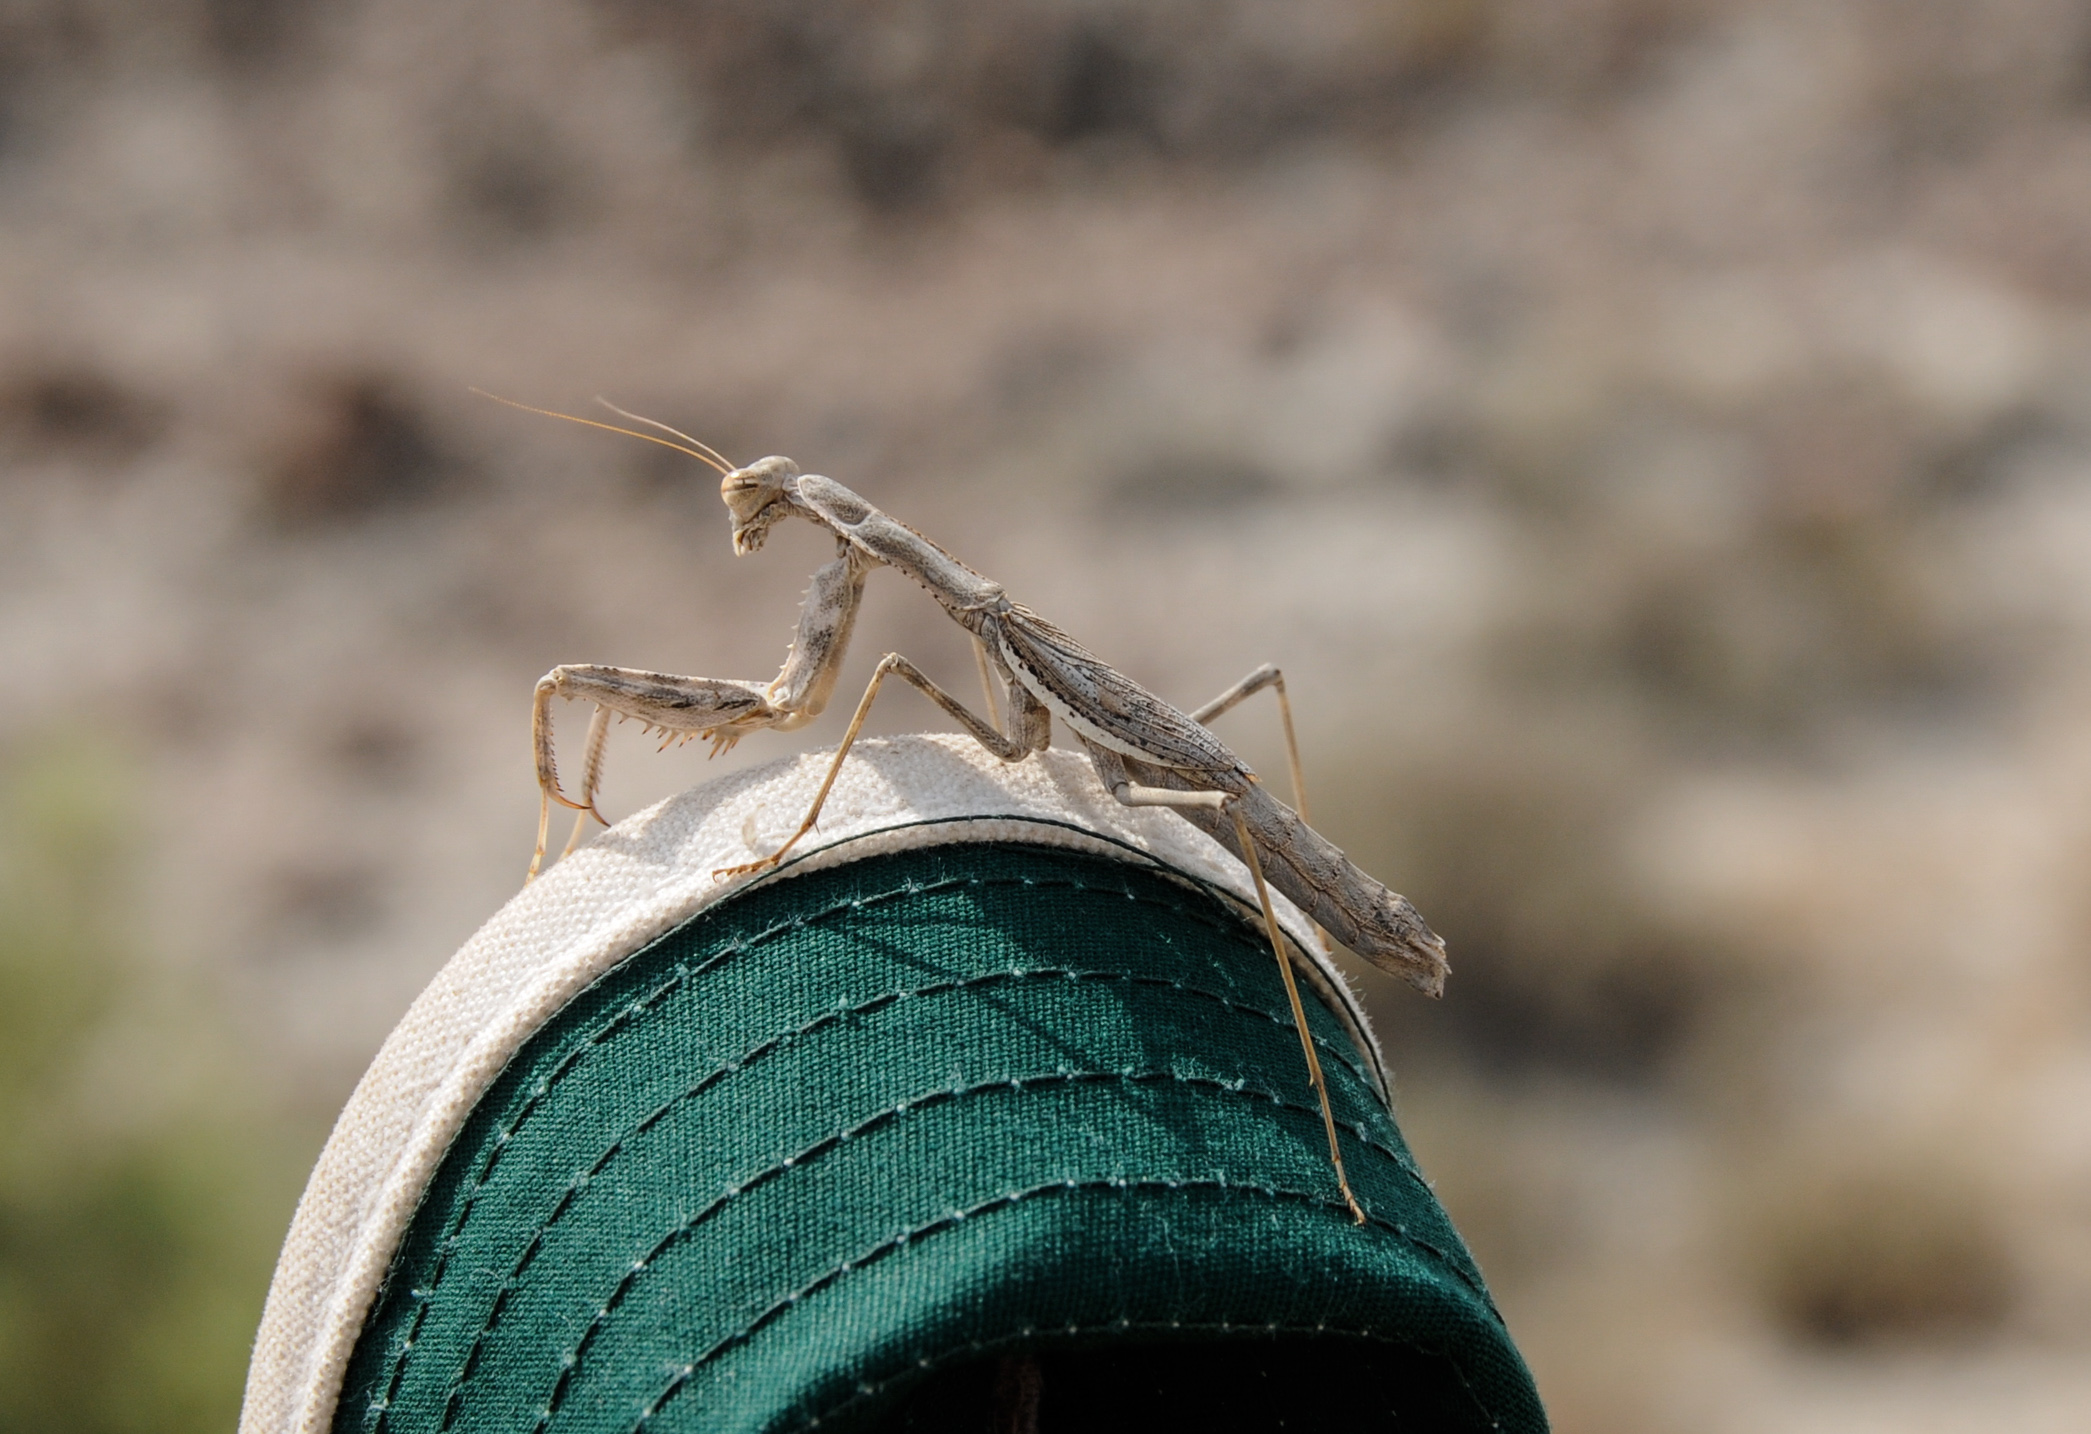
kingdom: Animalia
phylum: Arthropoda
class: Insecta
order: Mantodea
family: Mantidae
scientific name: Mantidae
